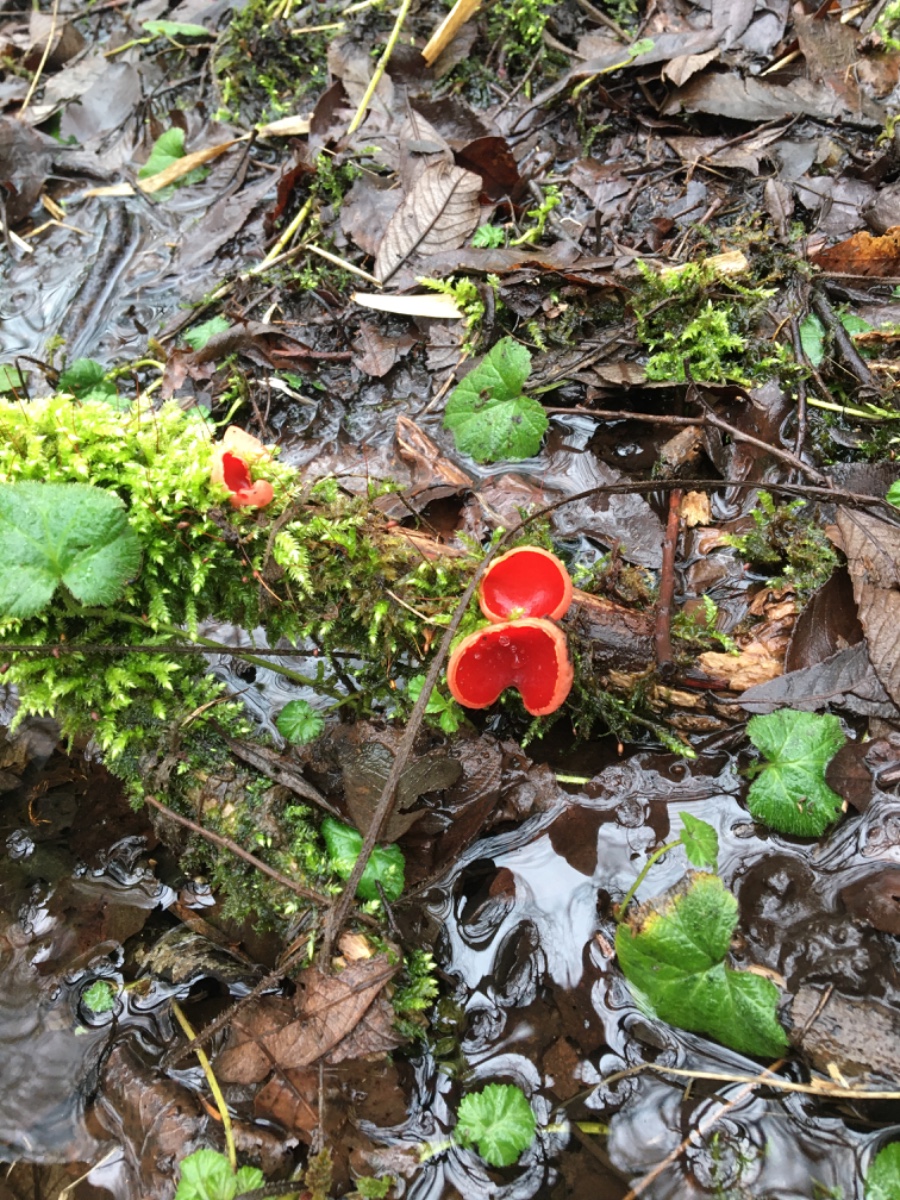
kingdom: Fungi
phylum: Ascomycota
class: Pezizomycetes
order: Pezizales
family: Sarcoscyphaceae
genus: Sarcoscypha
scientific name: Sarcoscypha austriaca
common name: krølhåret pragtbæger
